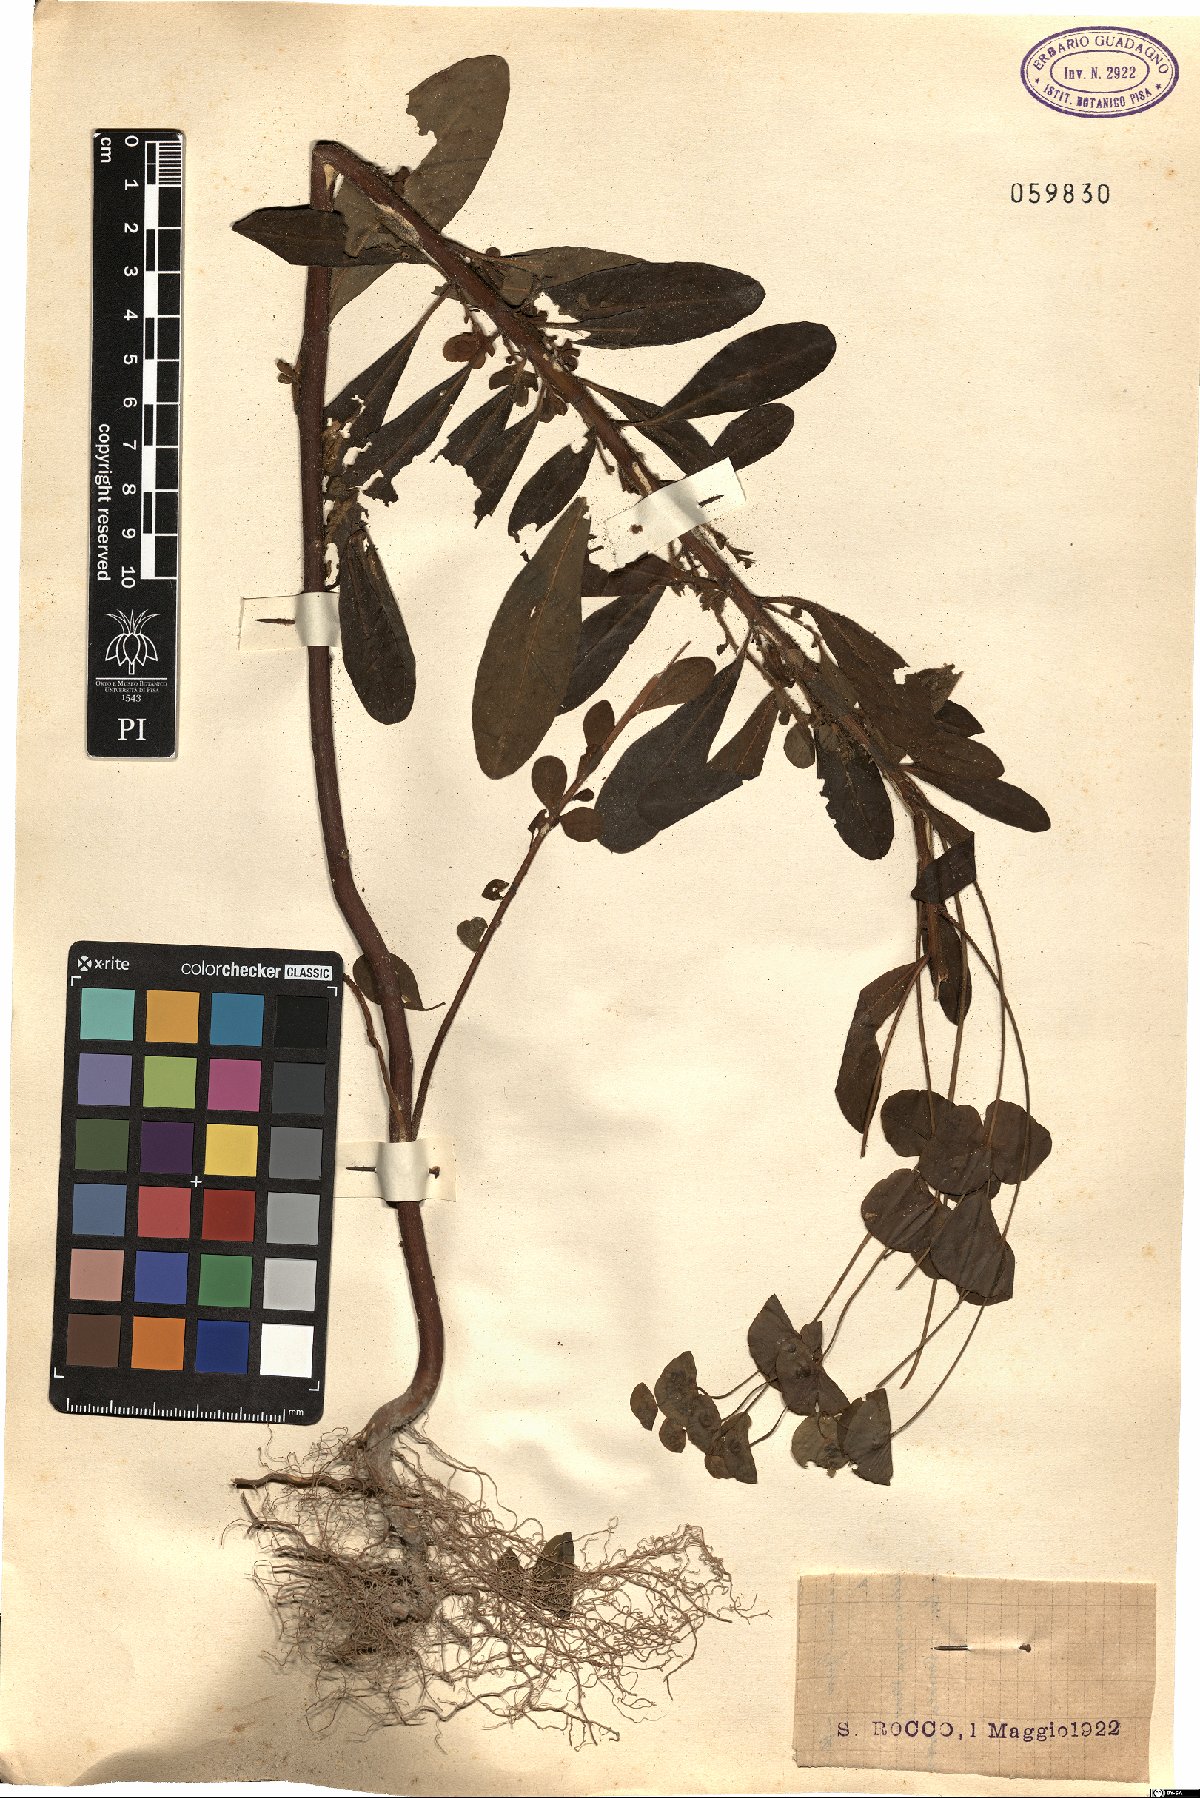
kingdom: Plantae
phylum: Tracheophyta
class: Magnoliopsida
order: Malpighiales
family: Euphorbiaceae
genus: Euphorbia
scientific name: Euphorbia
